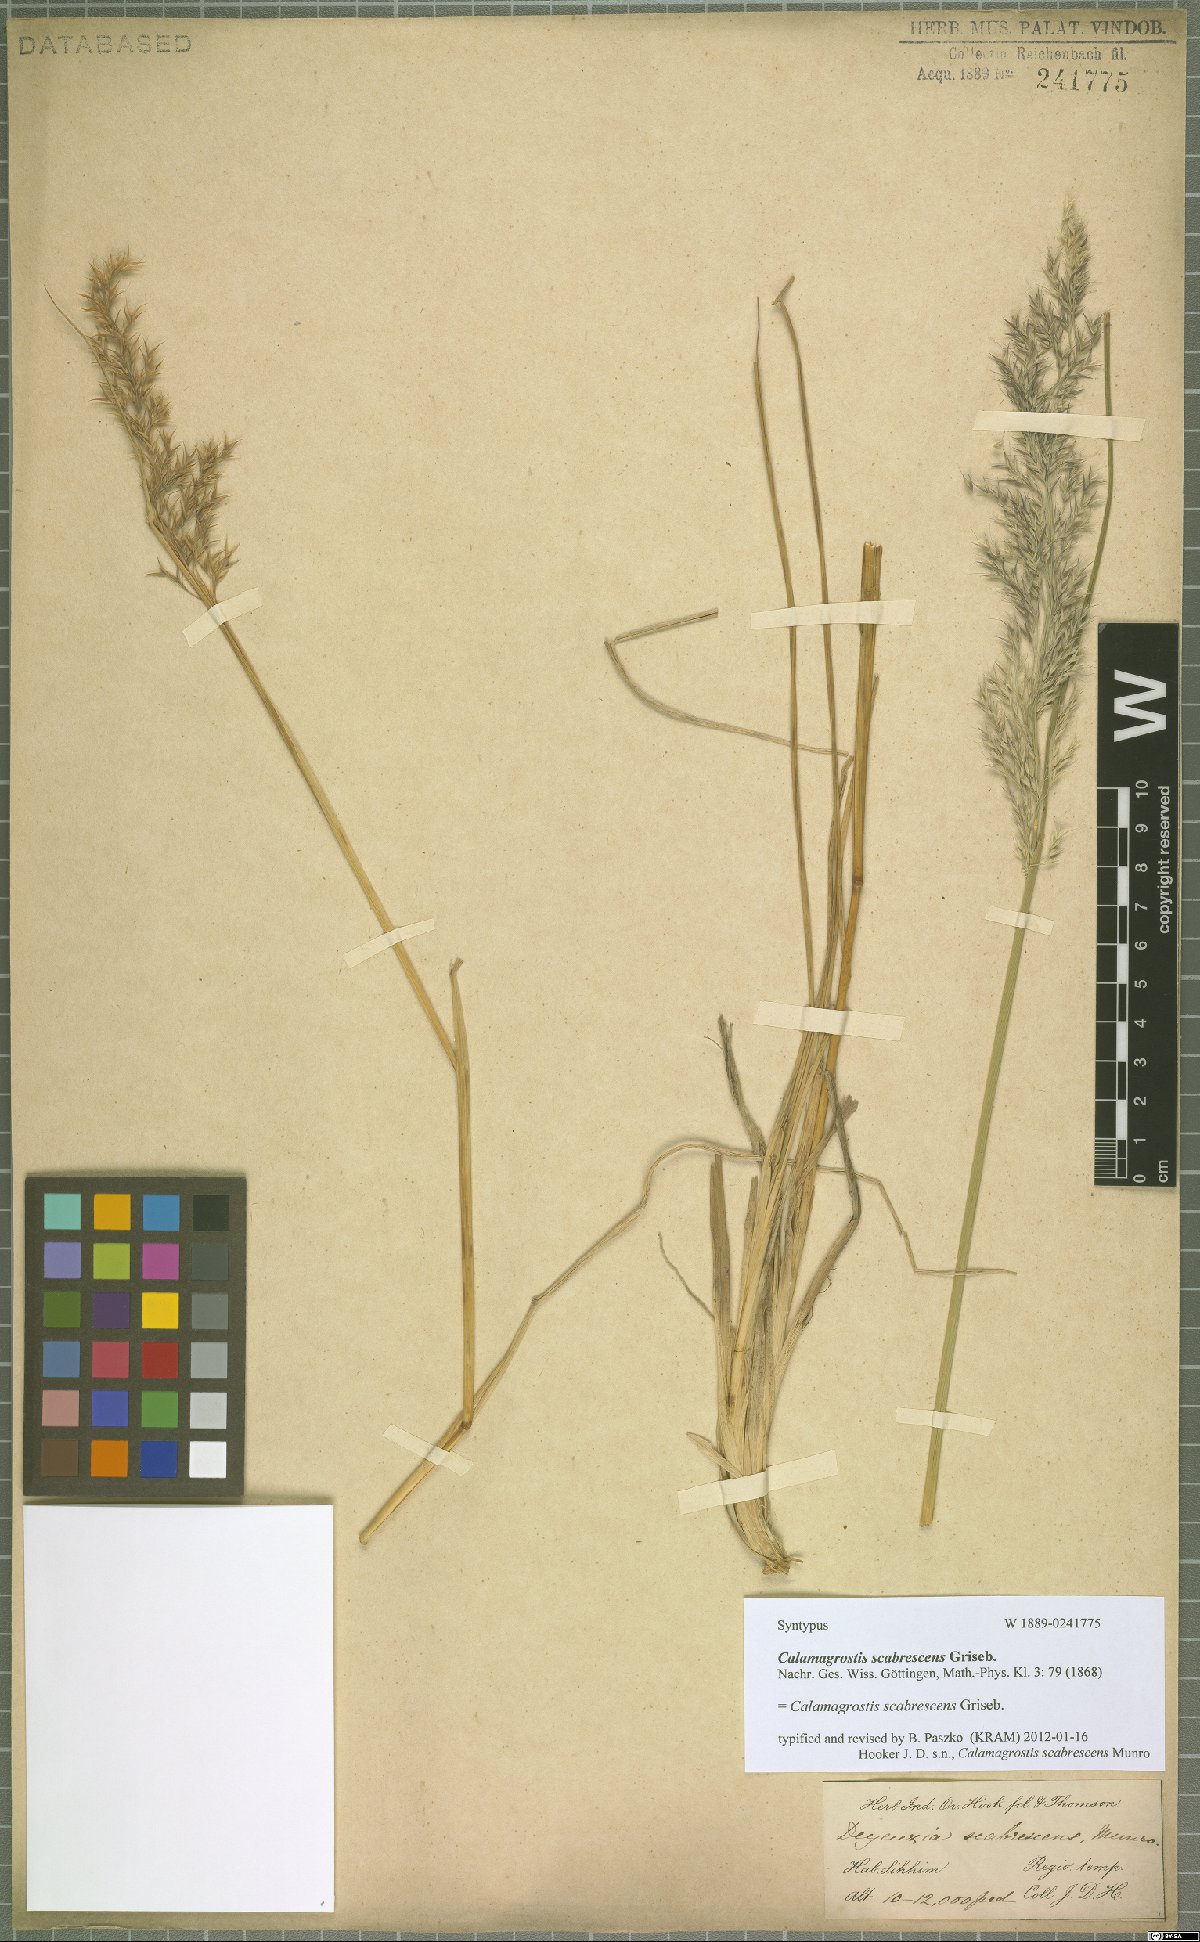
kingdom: Plantae
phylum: Tracheophyta
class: Liliopsida
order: Poales
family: Poaceae
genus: Calamagrostis
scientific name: Calamagrostis scabrescens
